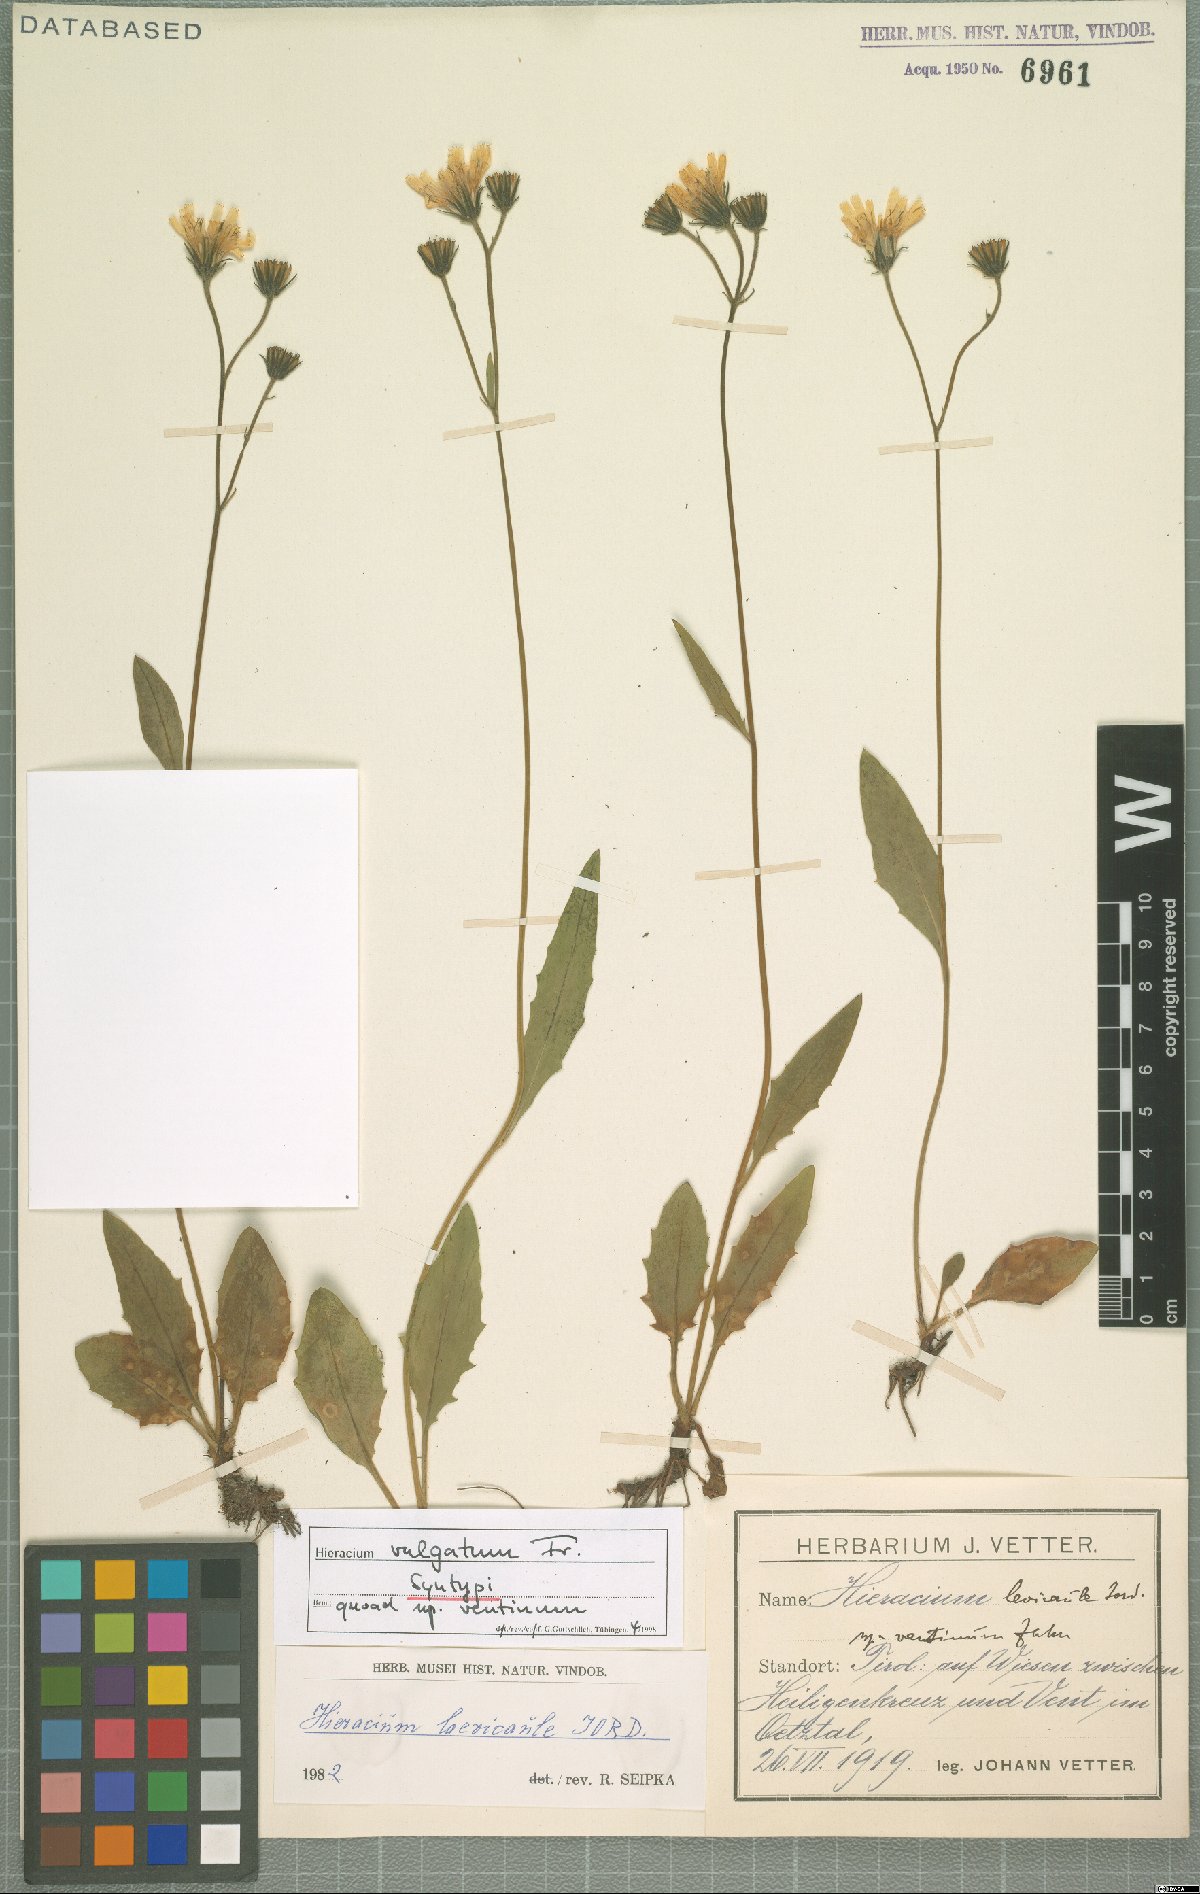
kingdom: Plantae
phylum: Tracheophyta
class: Magnoliopsida
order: Asterales
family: Asteraceae
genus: Hieracium
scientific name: Hieracium lachenalii
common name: Common hawkweed
